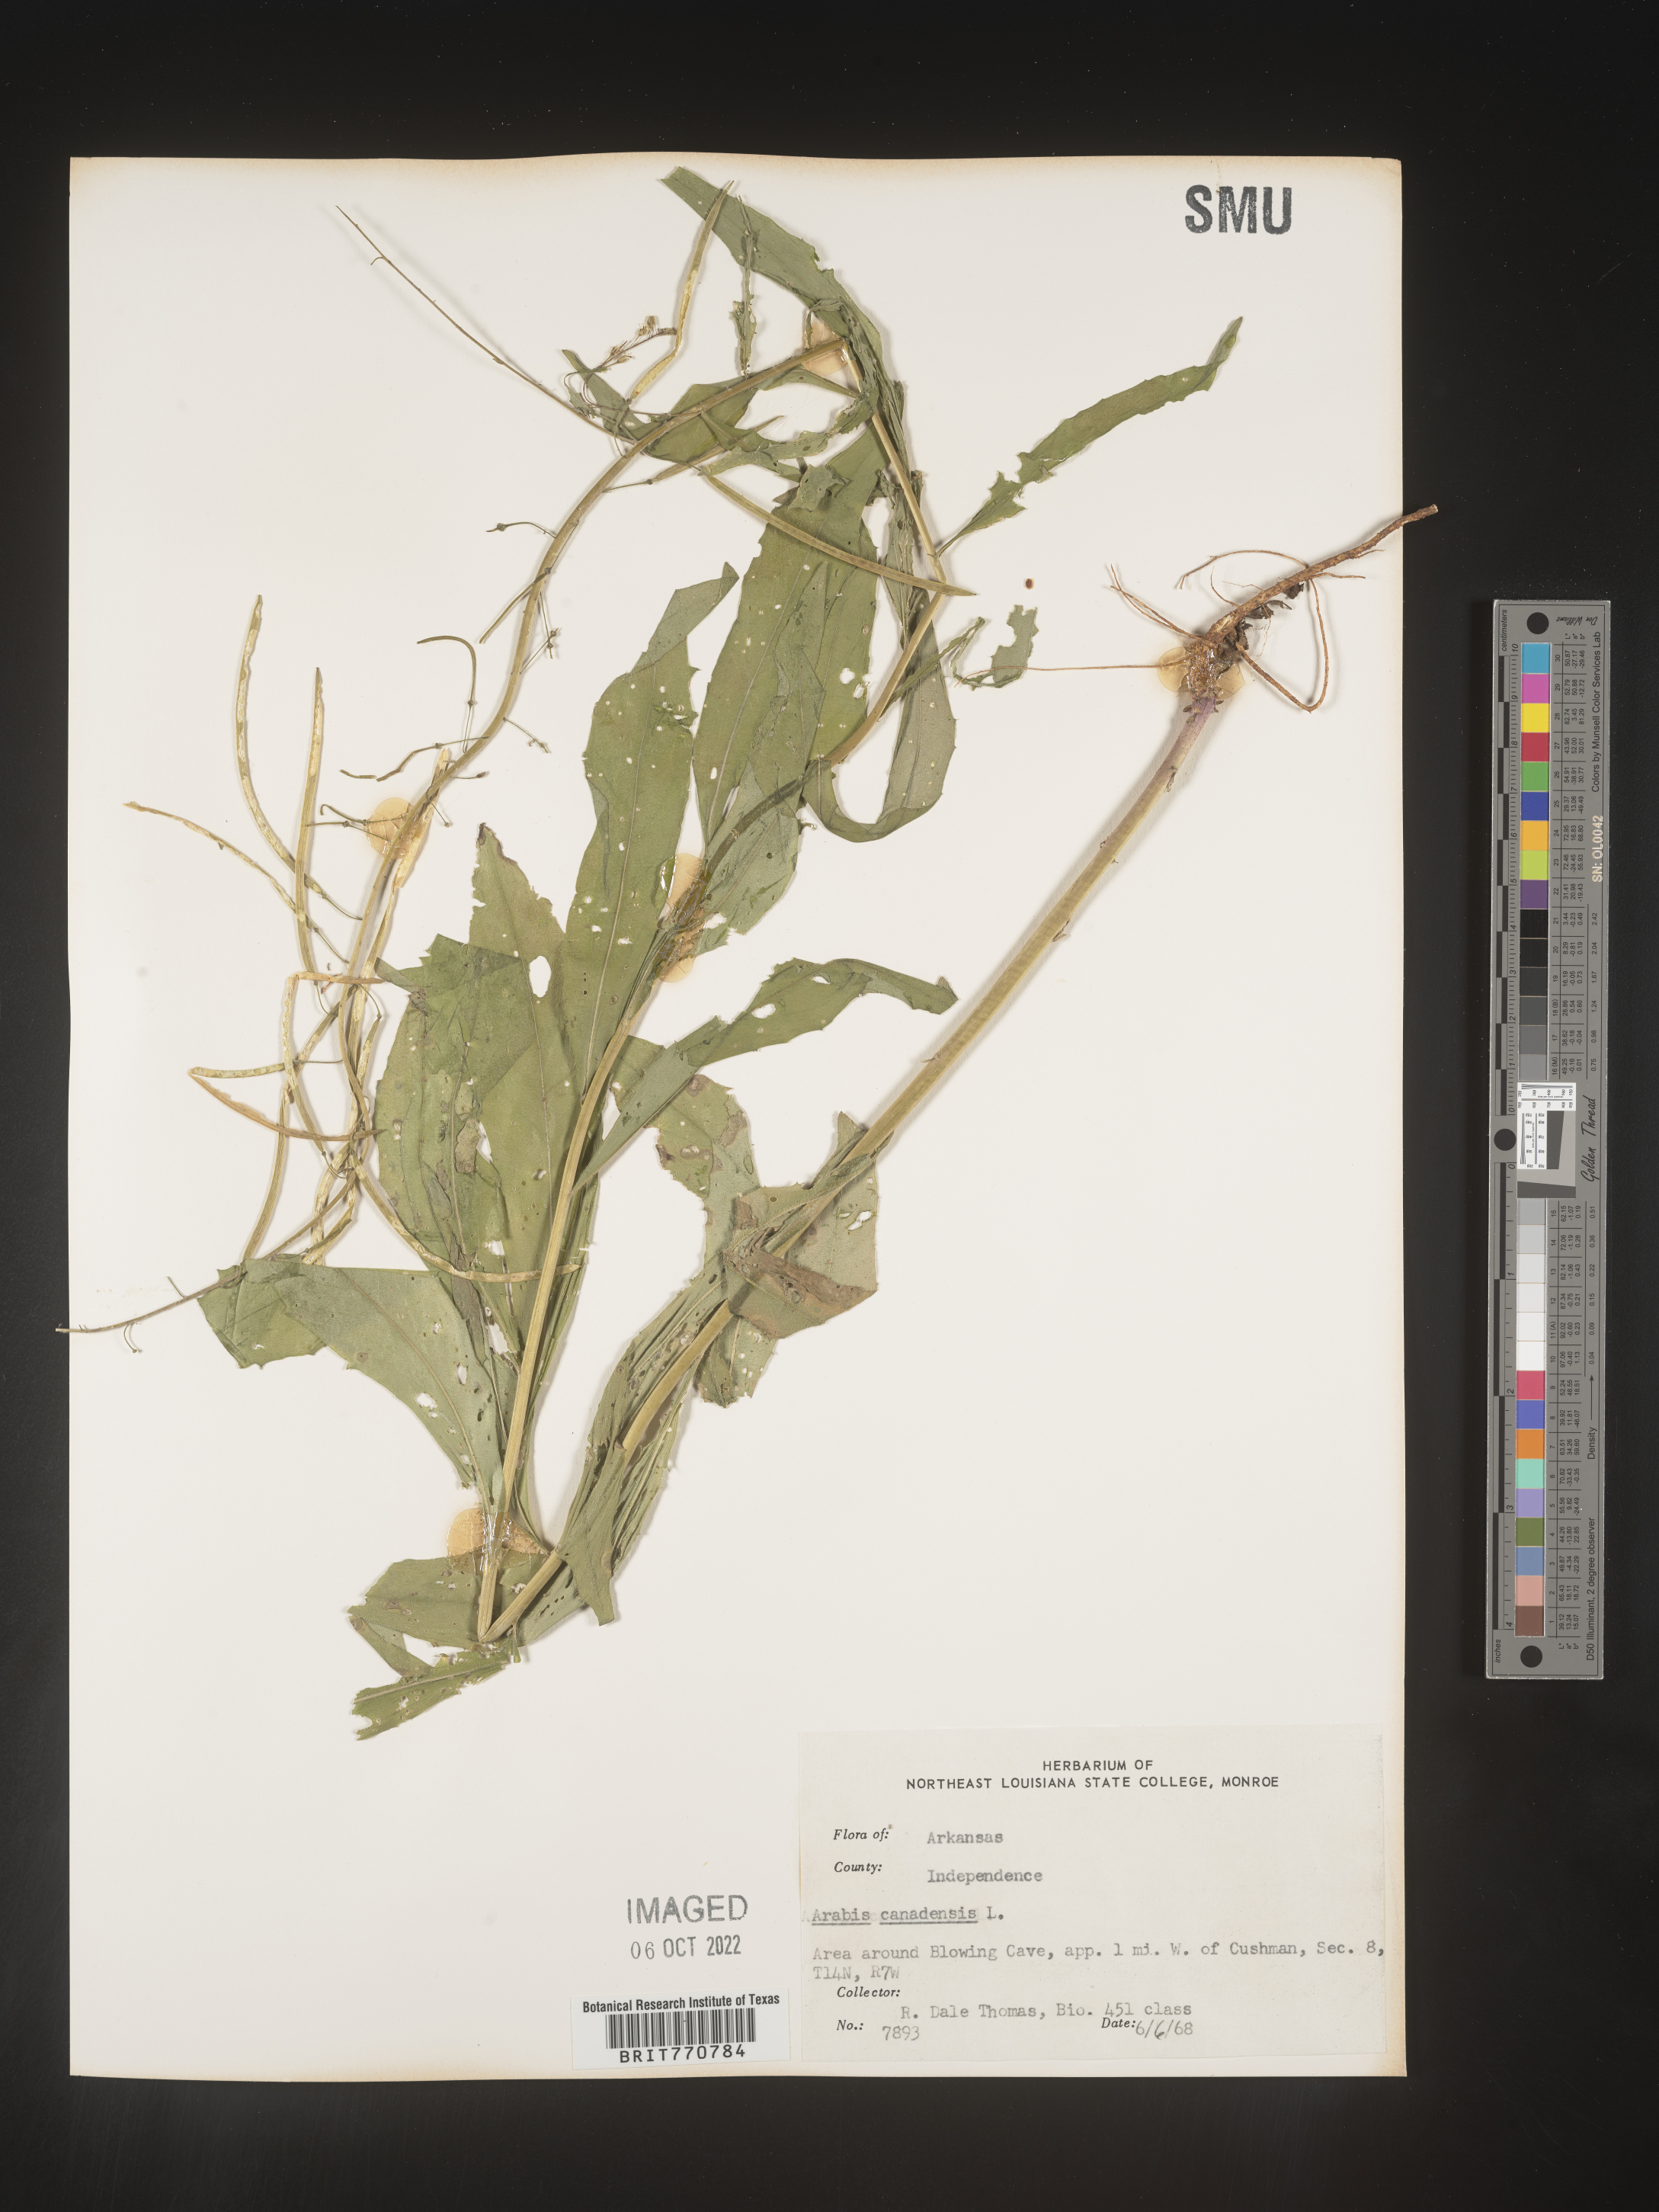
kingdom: Plantae
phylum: Tracheophyta
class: Magnoliopsida
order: Brassicales
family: Brassicaceae
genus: Borodinia
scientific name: Borodinia canadensis
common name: Sicklepod
